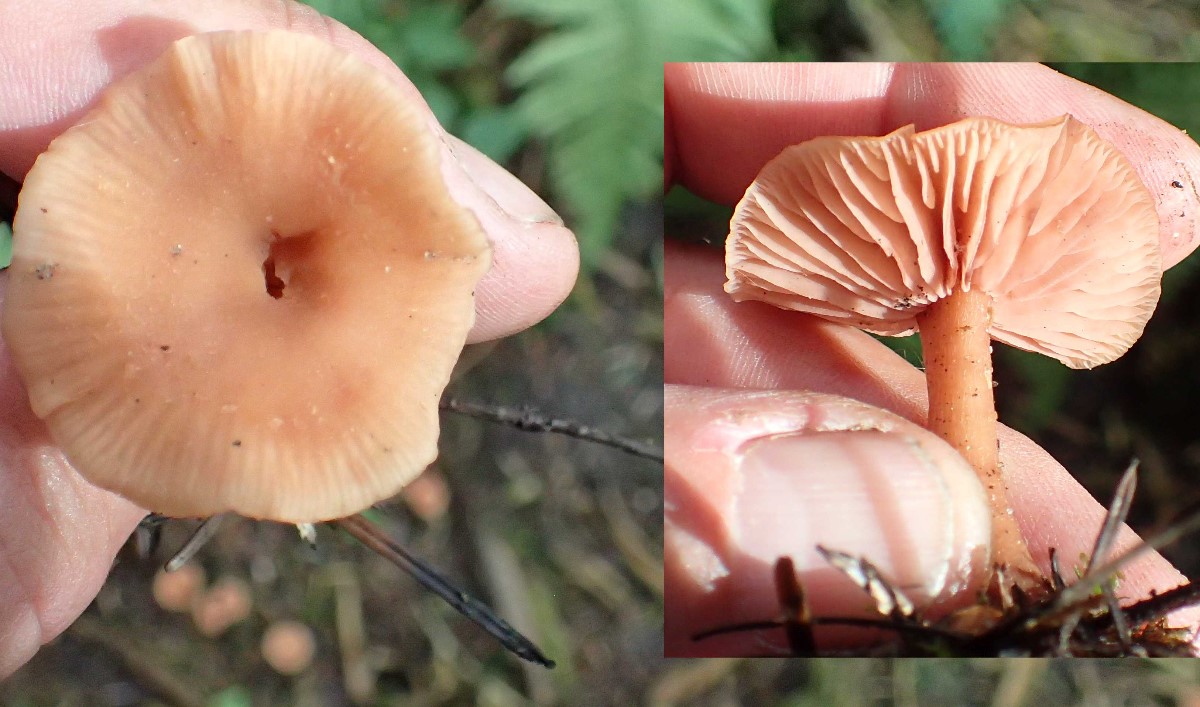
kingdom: Fungi
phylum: Basidiomycota
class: Agaricomycetes
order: Agaricales
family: Hydnangiaceae
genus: Laccaria
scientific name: Laccaria laccata
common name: rød ametysthat
